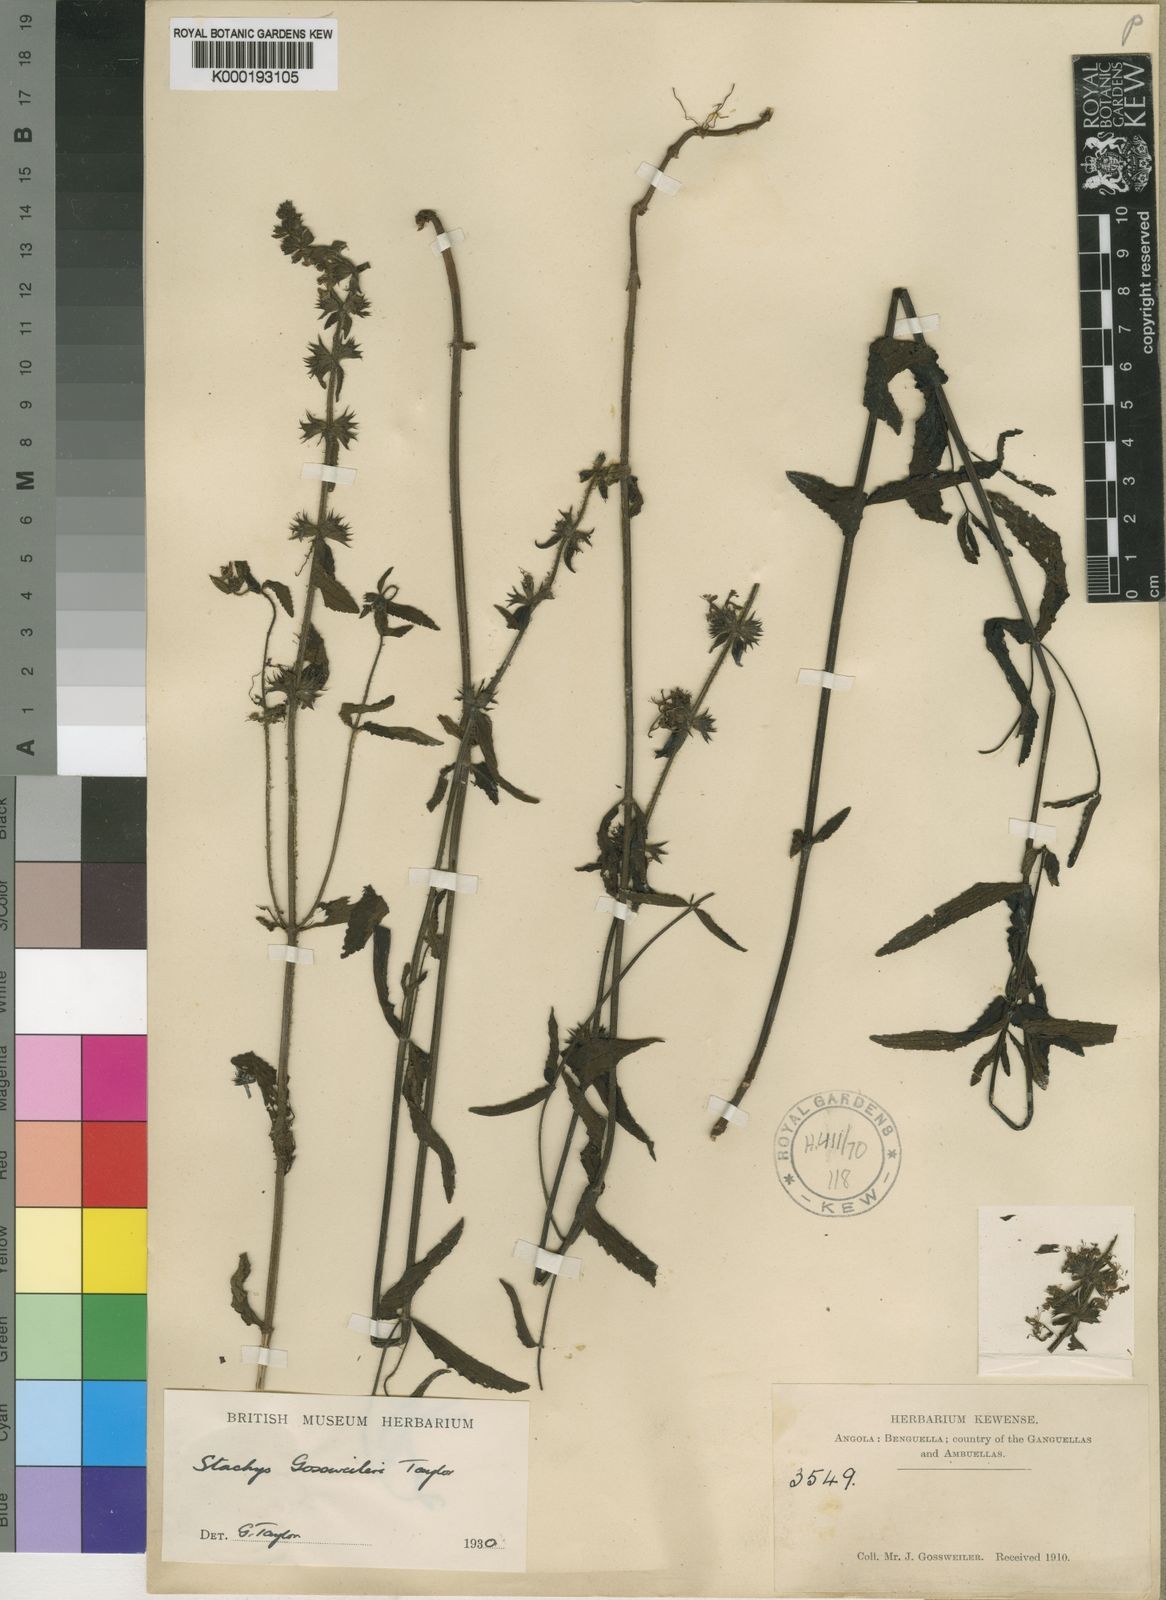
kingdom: Plantae
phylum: Tracheophyta
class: Magnoliopsida
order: Lamiales
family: Lamiaceae
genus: Stachys
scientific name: Stachys gossweileri
